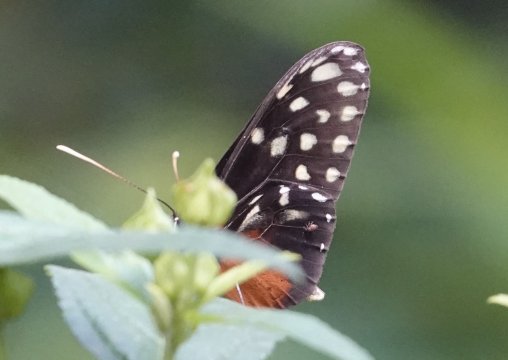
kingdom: Animalia
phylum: Arthropoda
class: Insecta
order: Lepidoptera
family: Nymphalidae
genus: Callithomia
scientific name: Callithomia hezia
